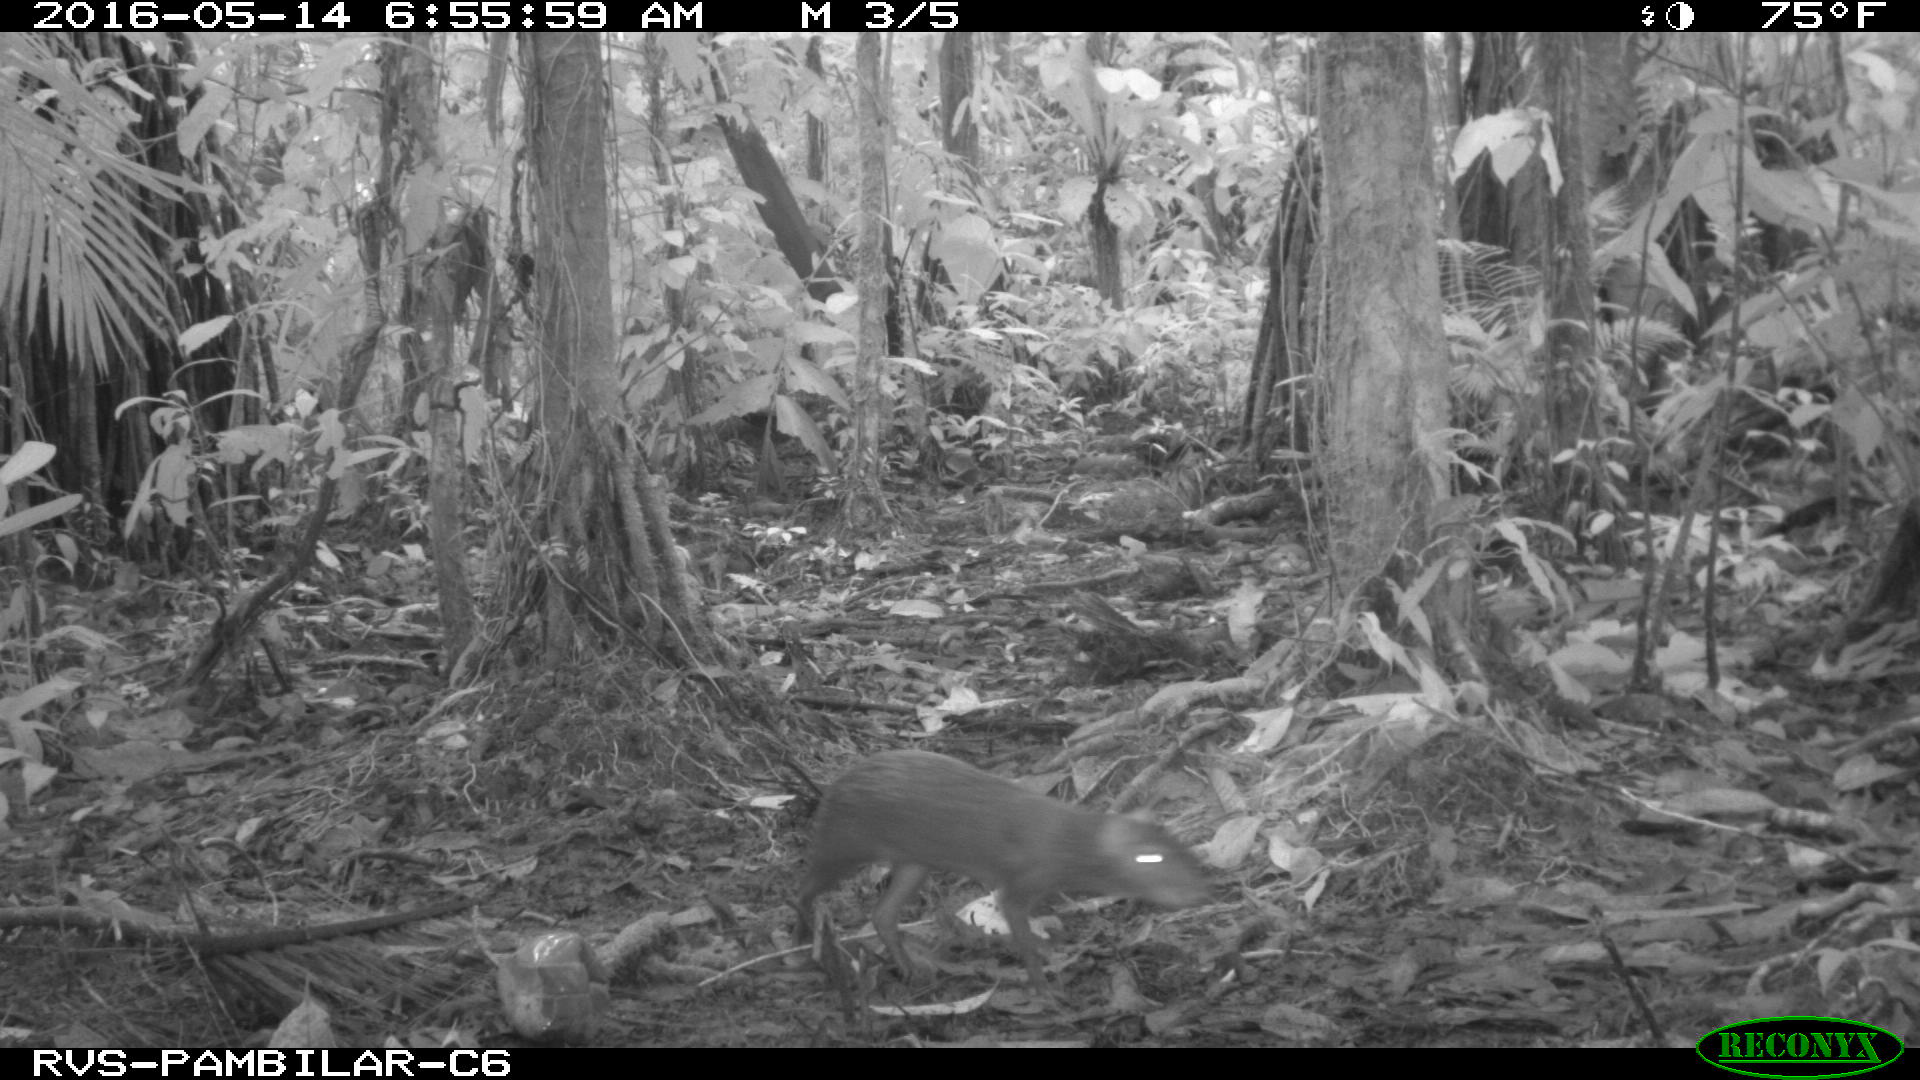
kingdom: Animalia
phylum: Chordata
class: Mammalia
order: Rodentia
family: Dasyproctidae
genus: Dasyprocta
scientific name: Dasyprocta punctata
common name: Central american agouti
